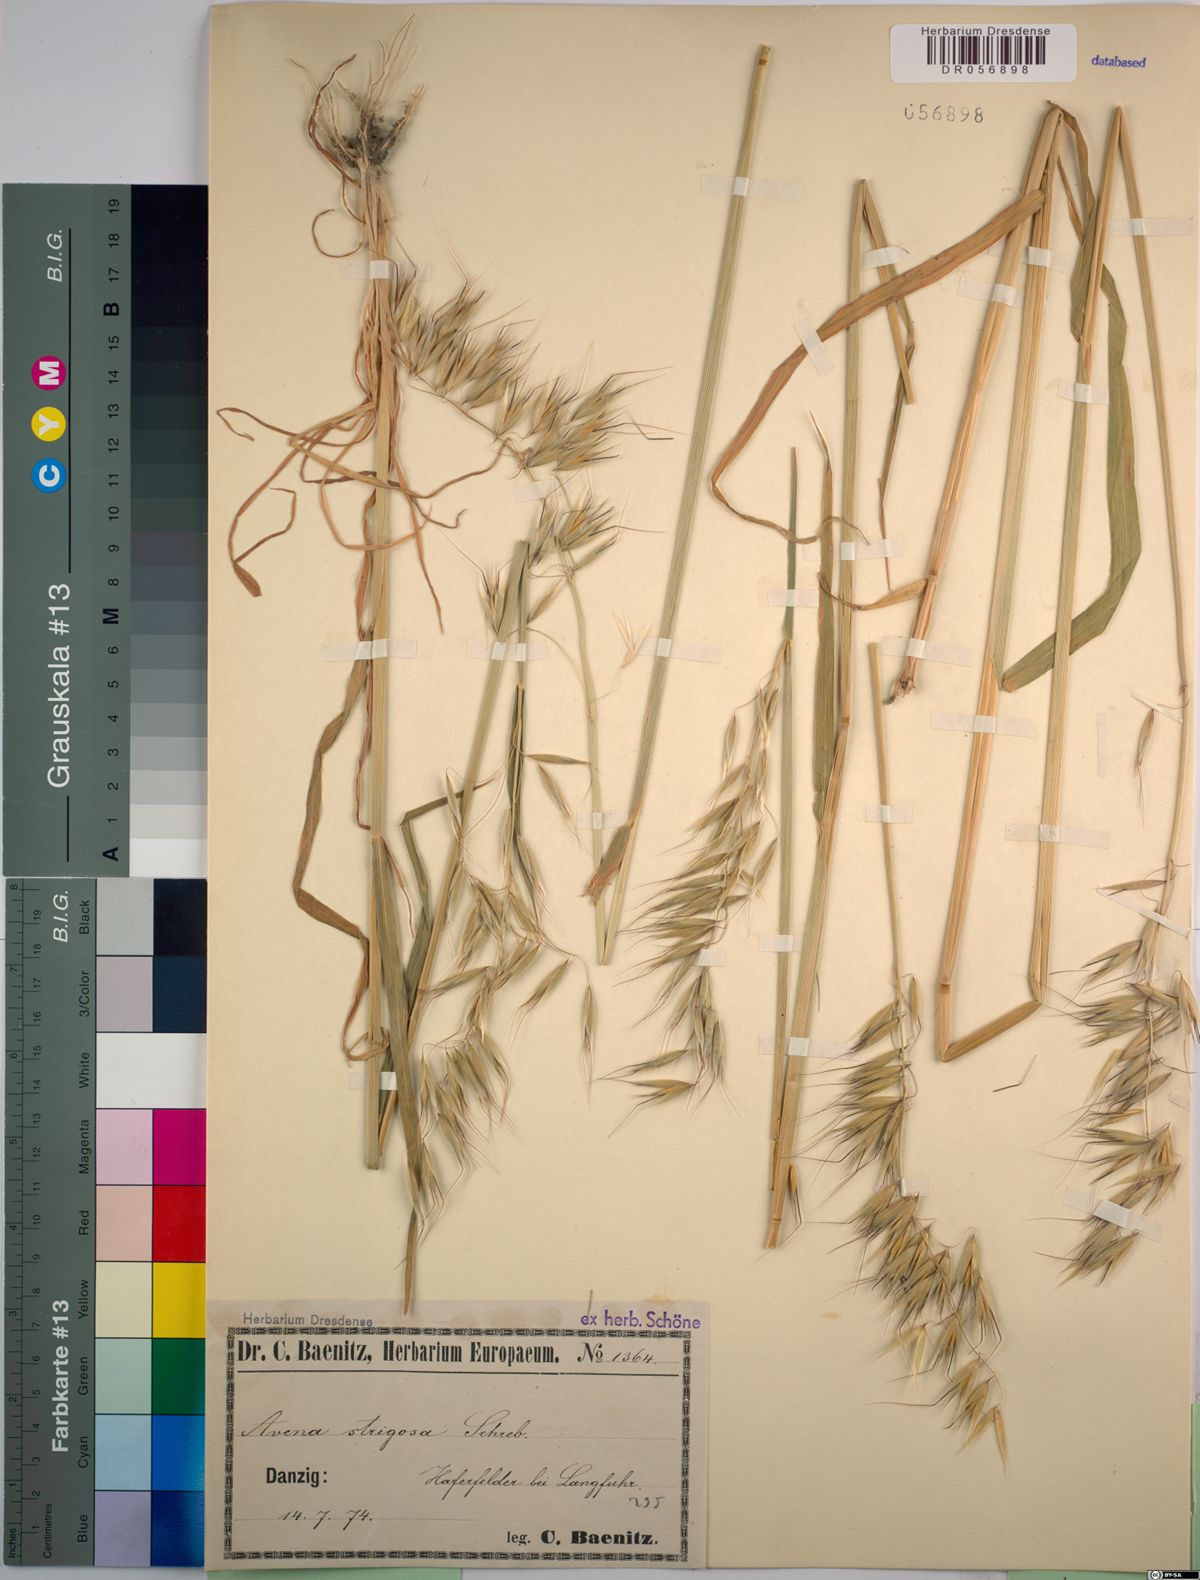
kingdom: Plantae
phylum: Tracheophyta
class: Liliopsida
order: Poales
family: Poaceae
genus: Avena
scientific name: Avena strigosa
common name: Bristle oat
